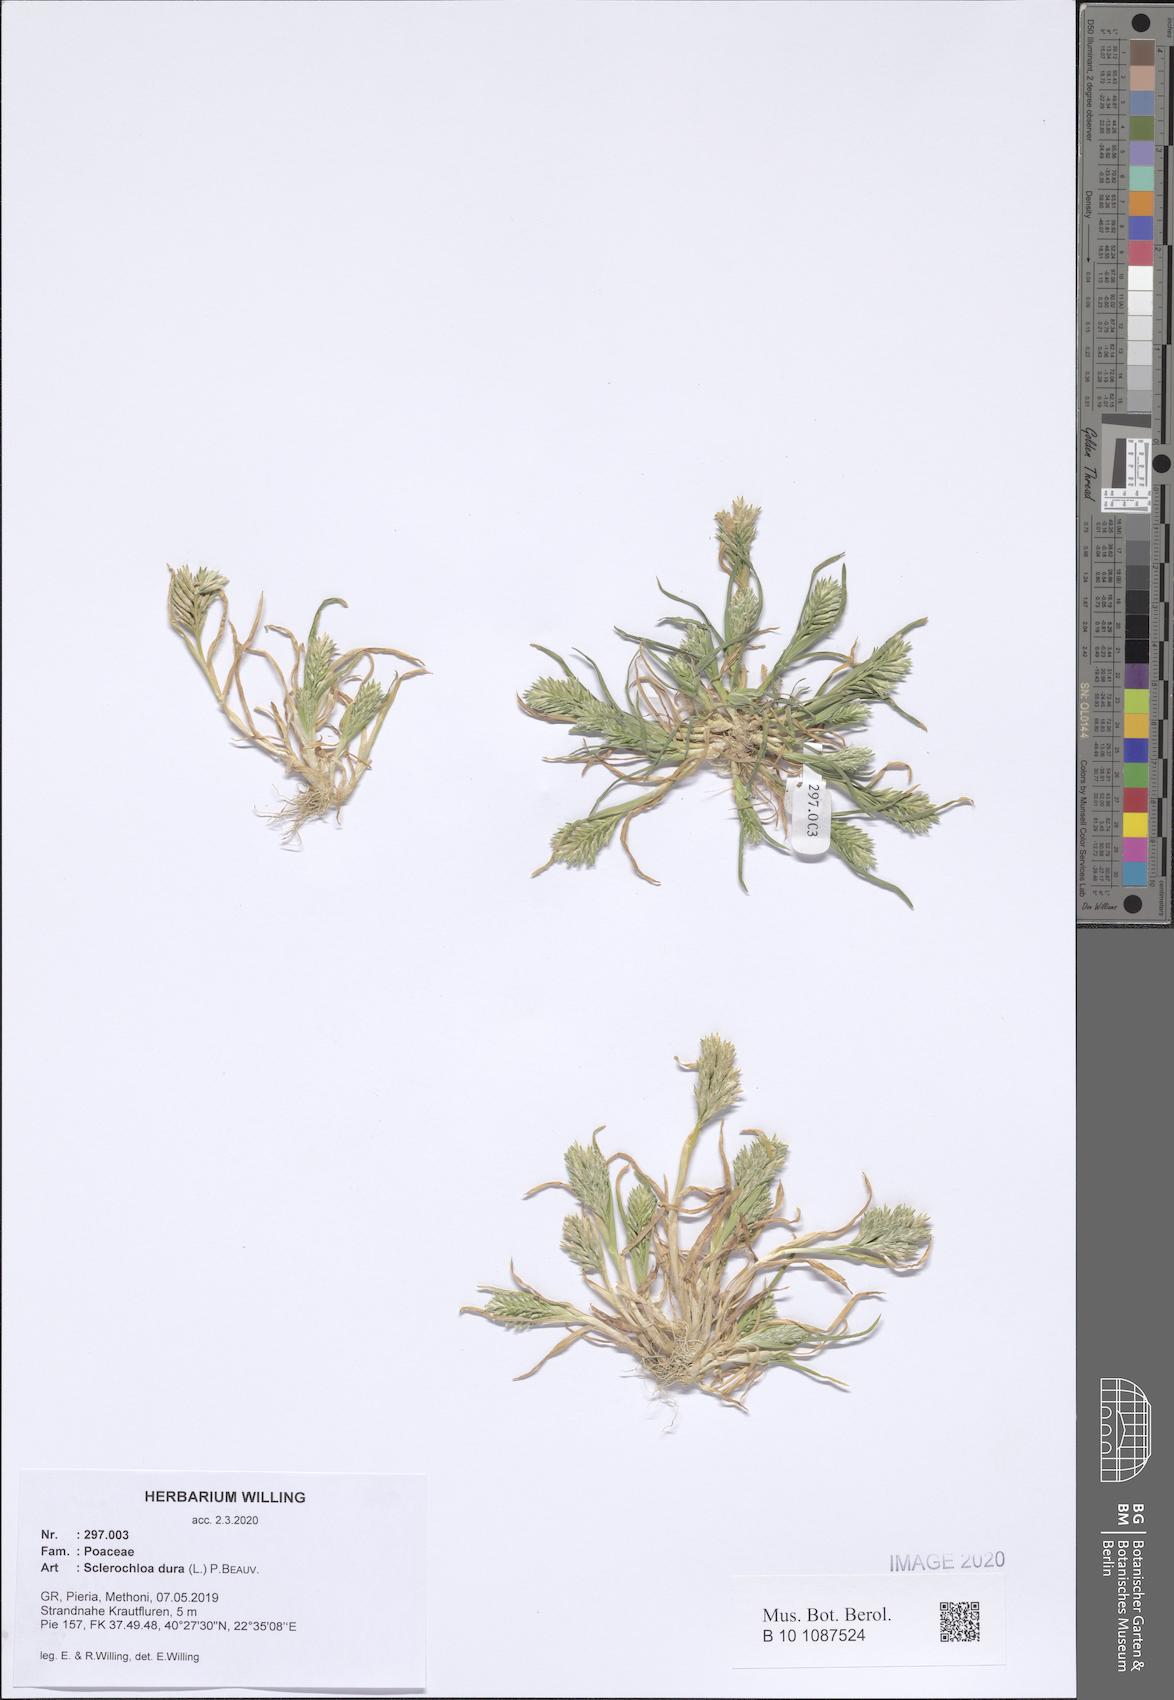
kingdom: Plantae
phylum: Tracheophyta
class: Liliopsida
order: Poales
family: Poaceae
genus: Sclerochloa
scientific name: Sclerochloa dura
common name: Common hardgrass
